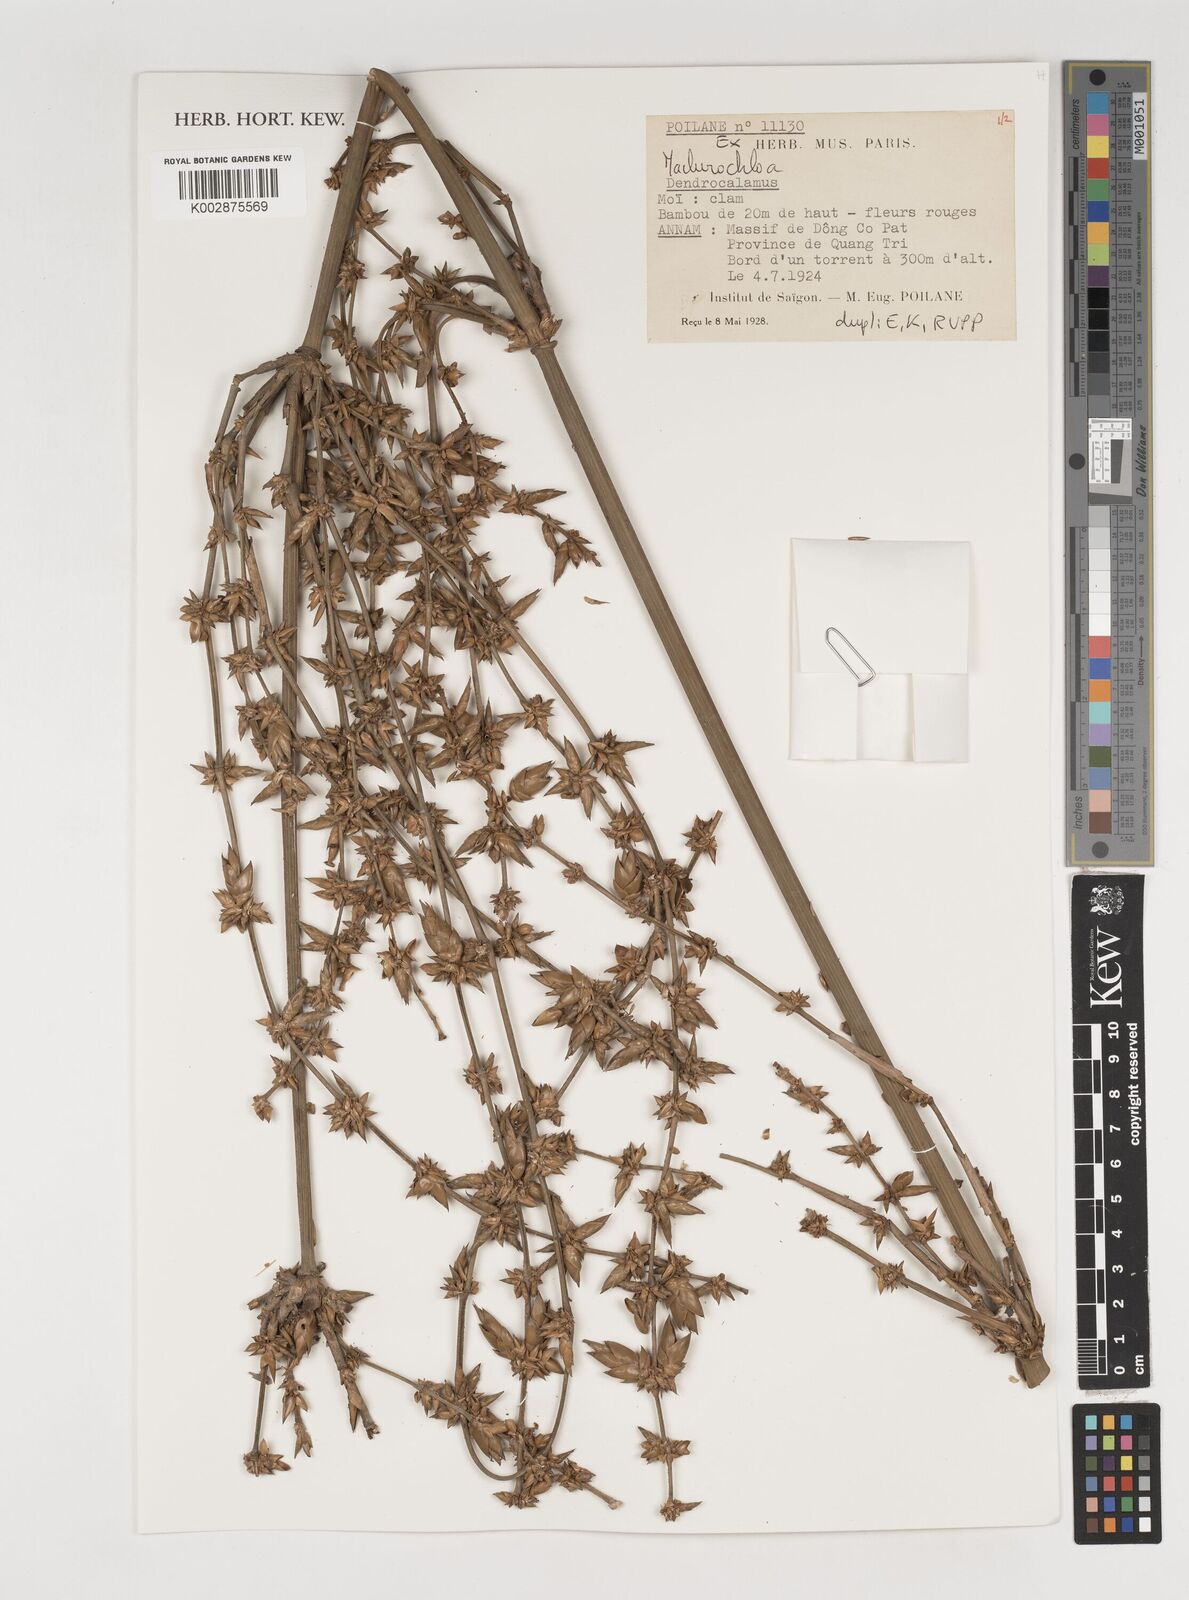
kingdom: Plantae
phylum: Tracheophyta
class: Liliopsida
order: Poales
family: Poaceae
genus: Kinabaluchloa
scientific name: Kinabaluchloa
